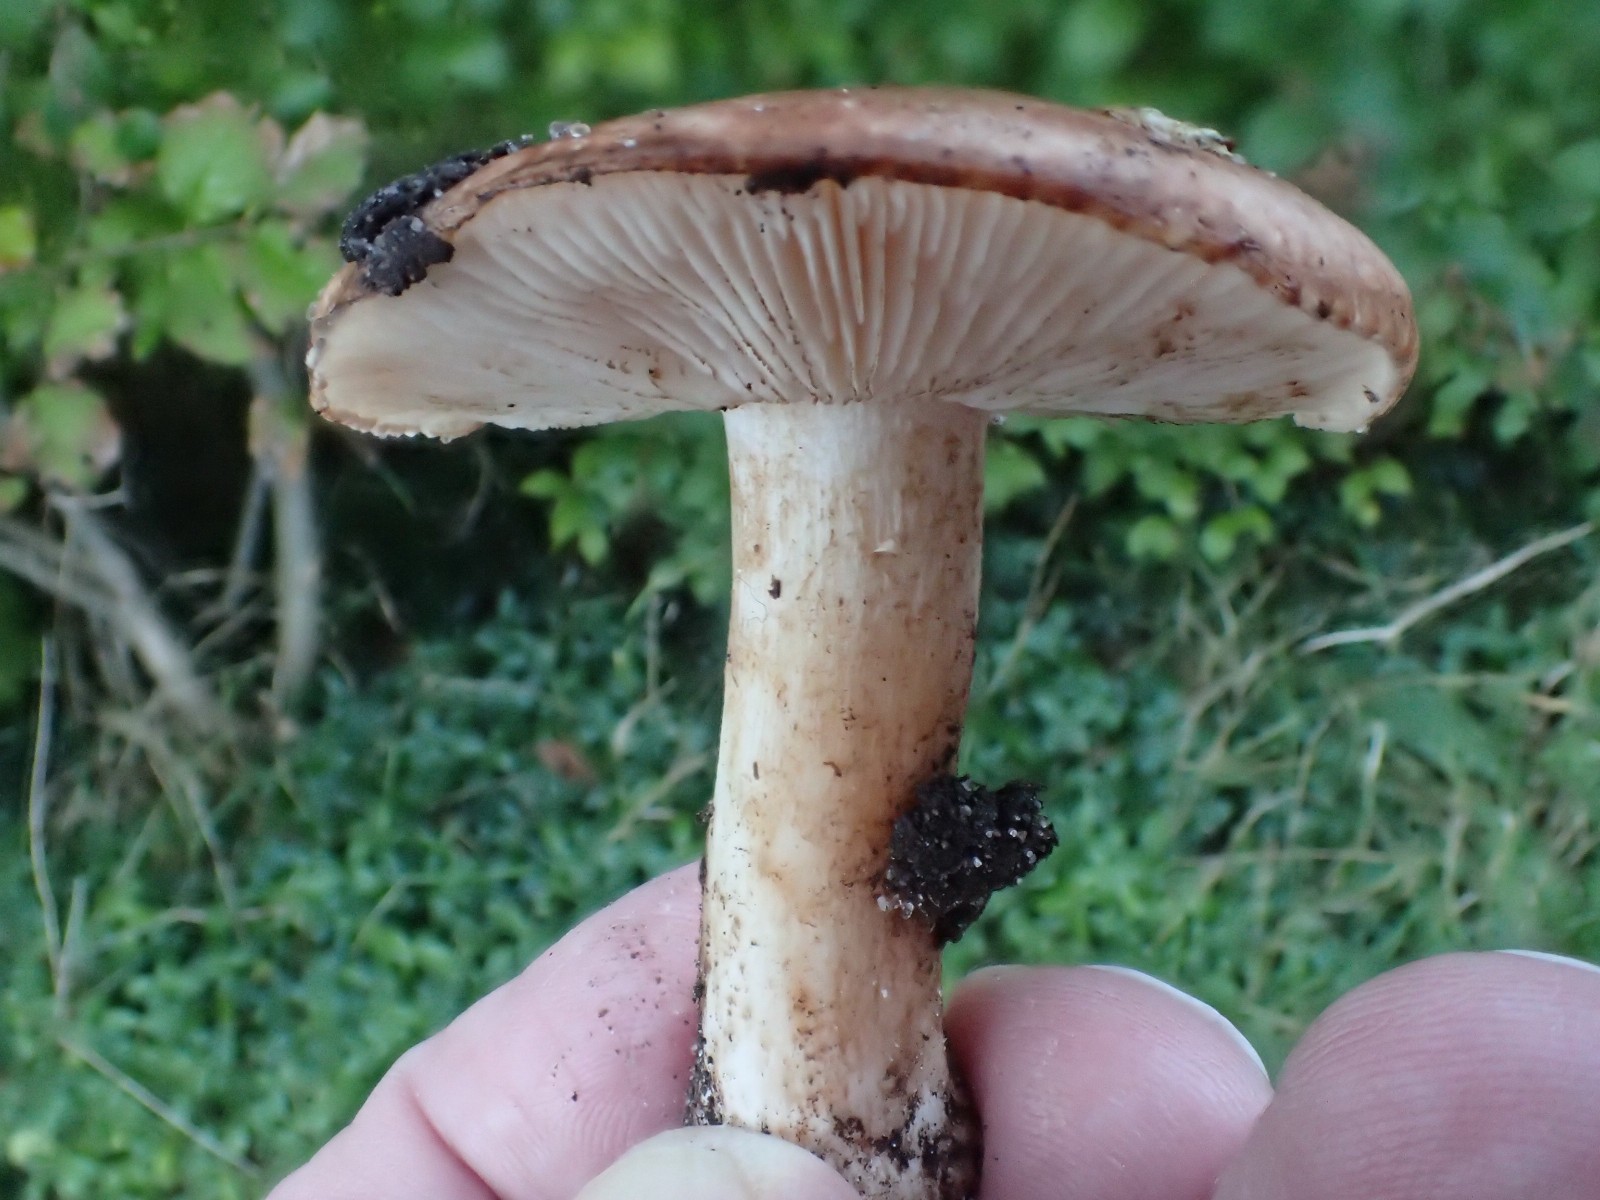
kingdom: Fungi
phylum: Basidiomycota
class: Agaricomycetes
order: Agaricales
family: Tricholomataceae
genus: Tricholoma
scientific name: Tricholoma populinum
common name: poppel-ridderhat
